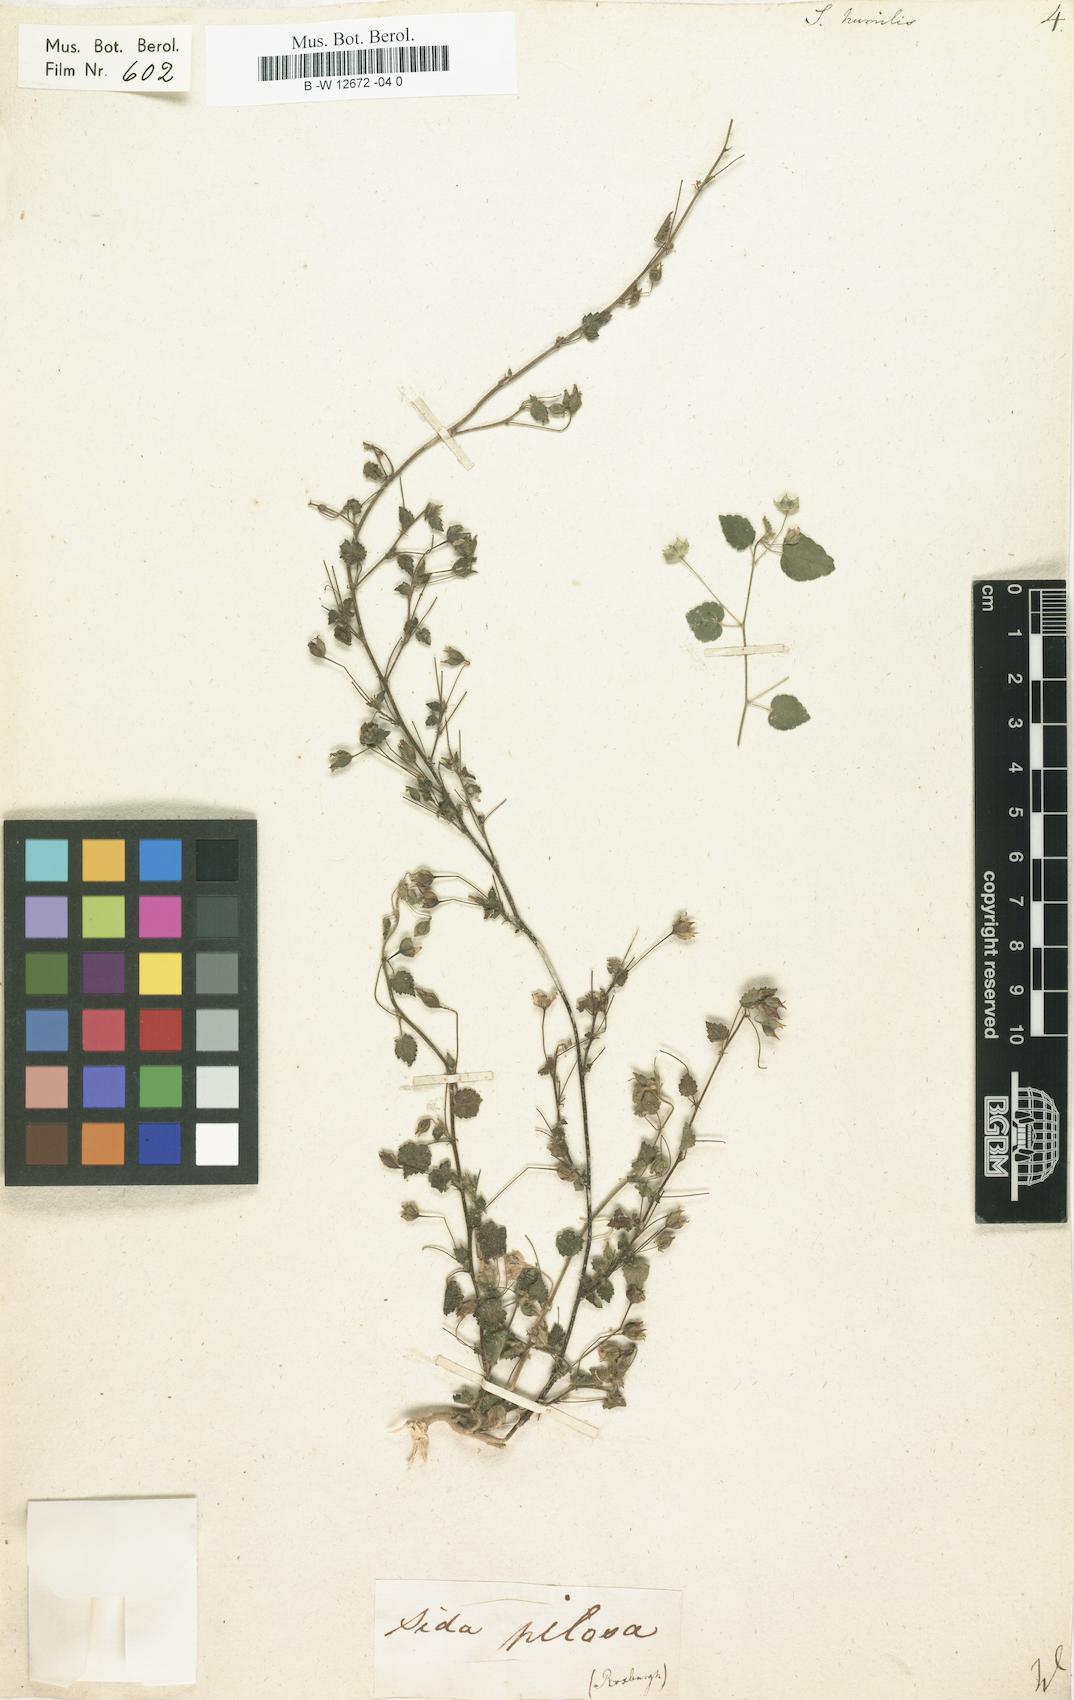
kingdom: Plantae
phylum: Tracheophyta
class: Magnoliopsida
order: Malvales
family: Malvaceae
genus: Sida
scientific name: Sida cordata
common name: Long-stalk sida
